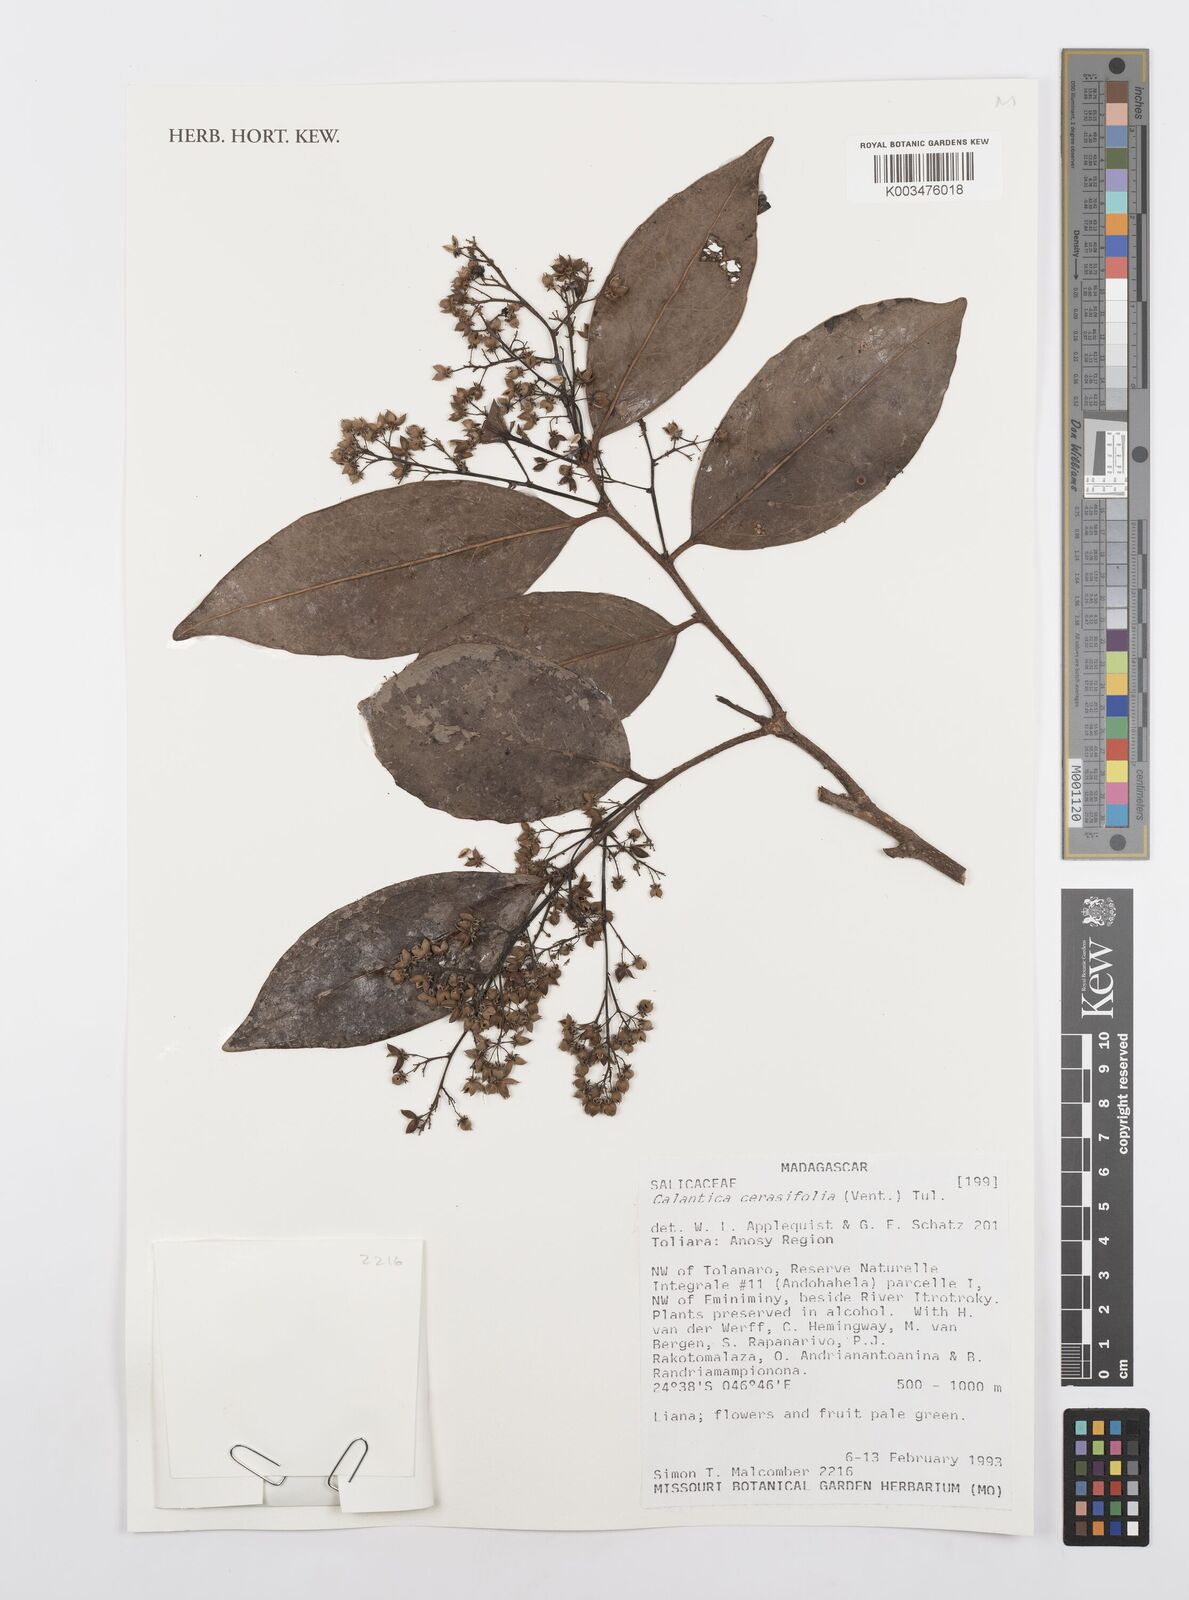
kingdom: Plantae
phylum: Tracheophyta
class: Magnoliopsida
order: Malpighiales
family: Salicaceae
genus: Calantica
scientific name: Calantica cerasifolia
